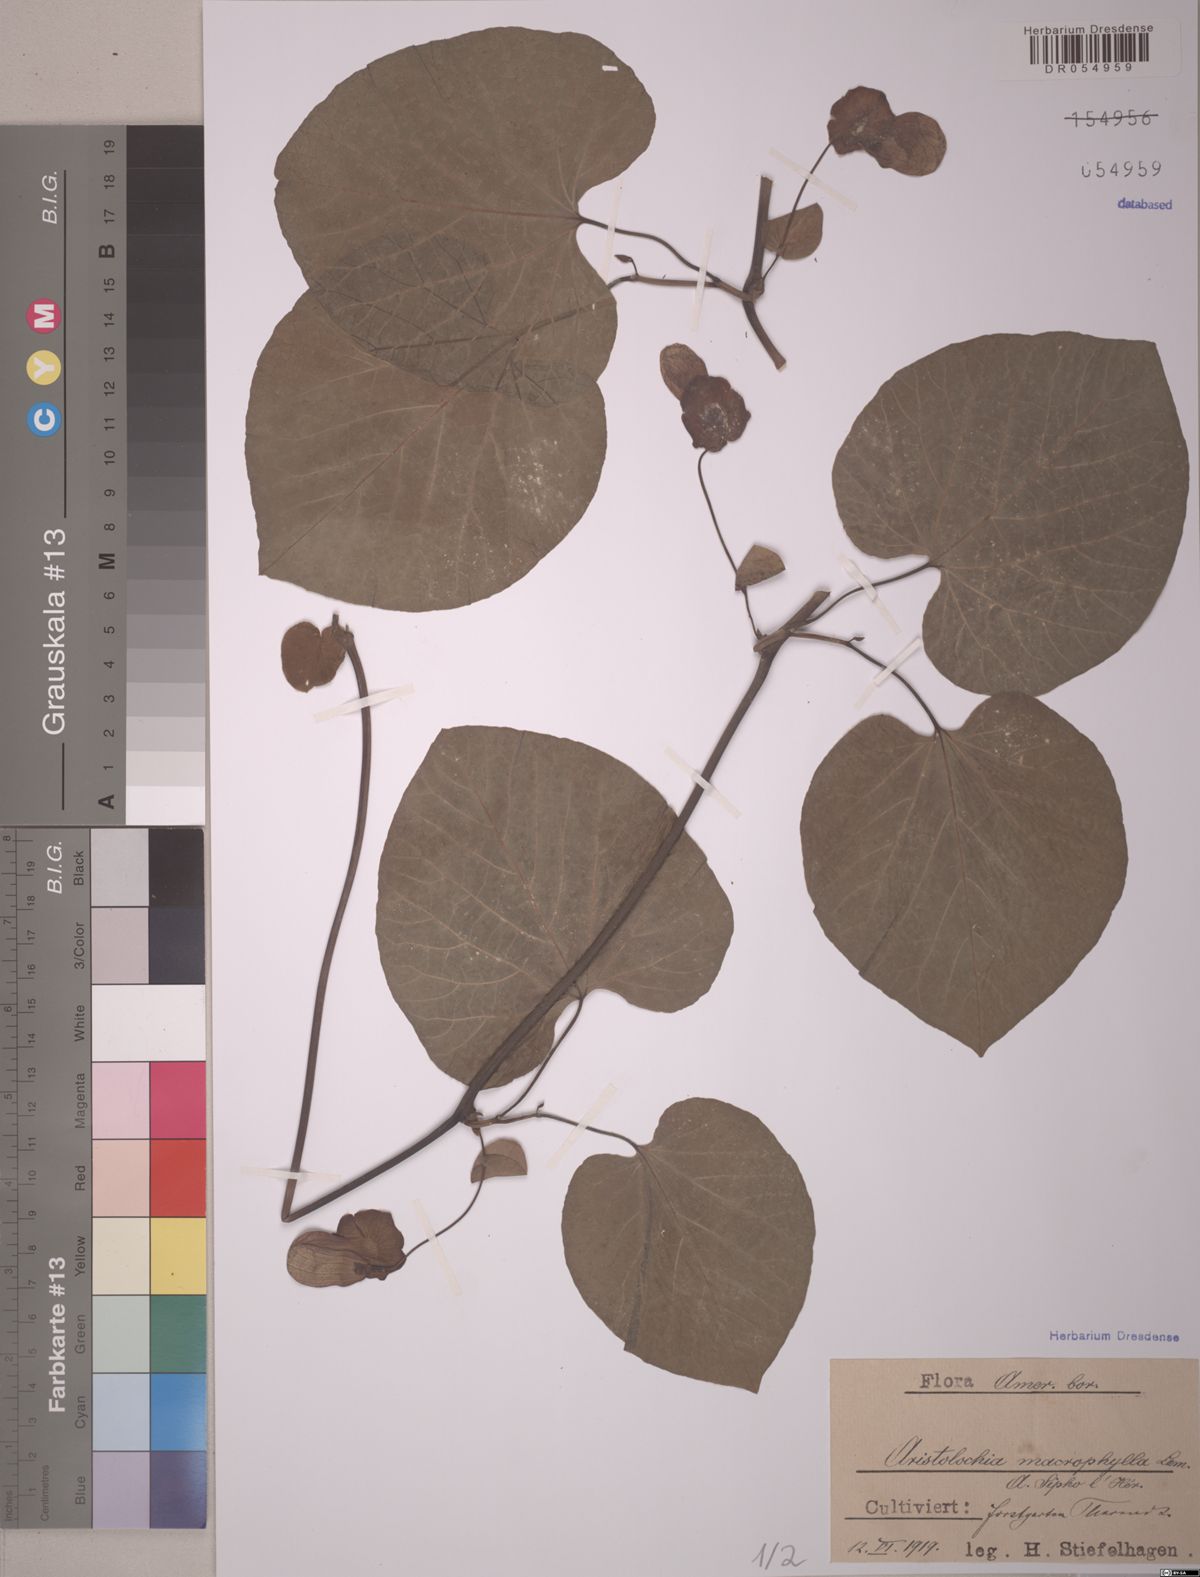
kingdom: Plantae
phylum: Tracheophyta
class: Magnoliopsida
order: Piperales
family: Aristolochiaceae
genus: Isotrema
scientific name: Isotrema macrophyllum
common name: Dutchman's-pipe
